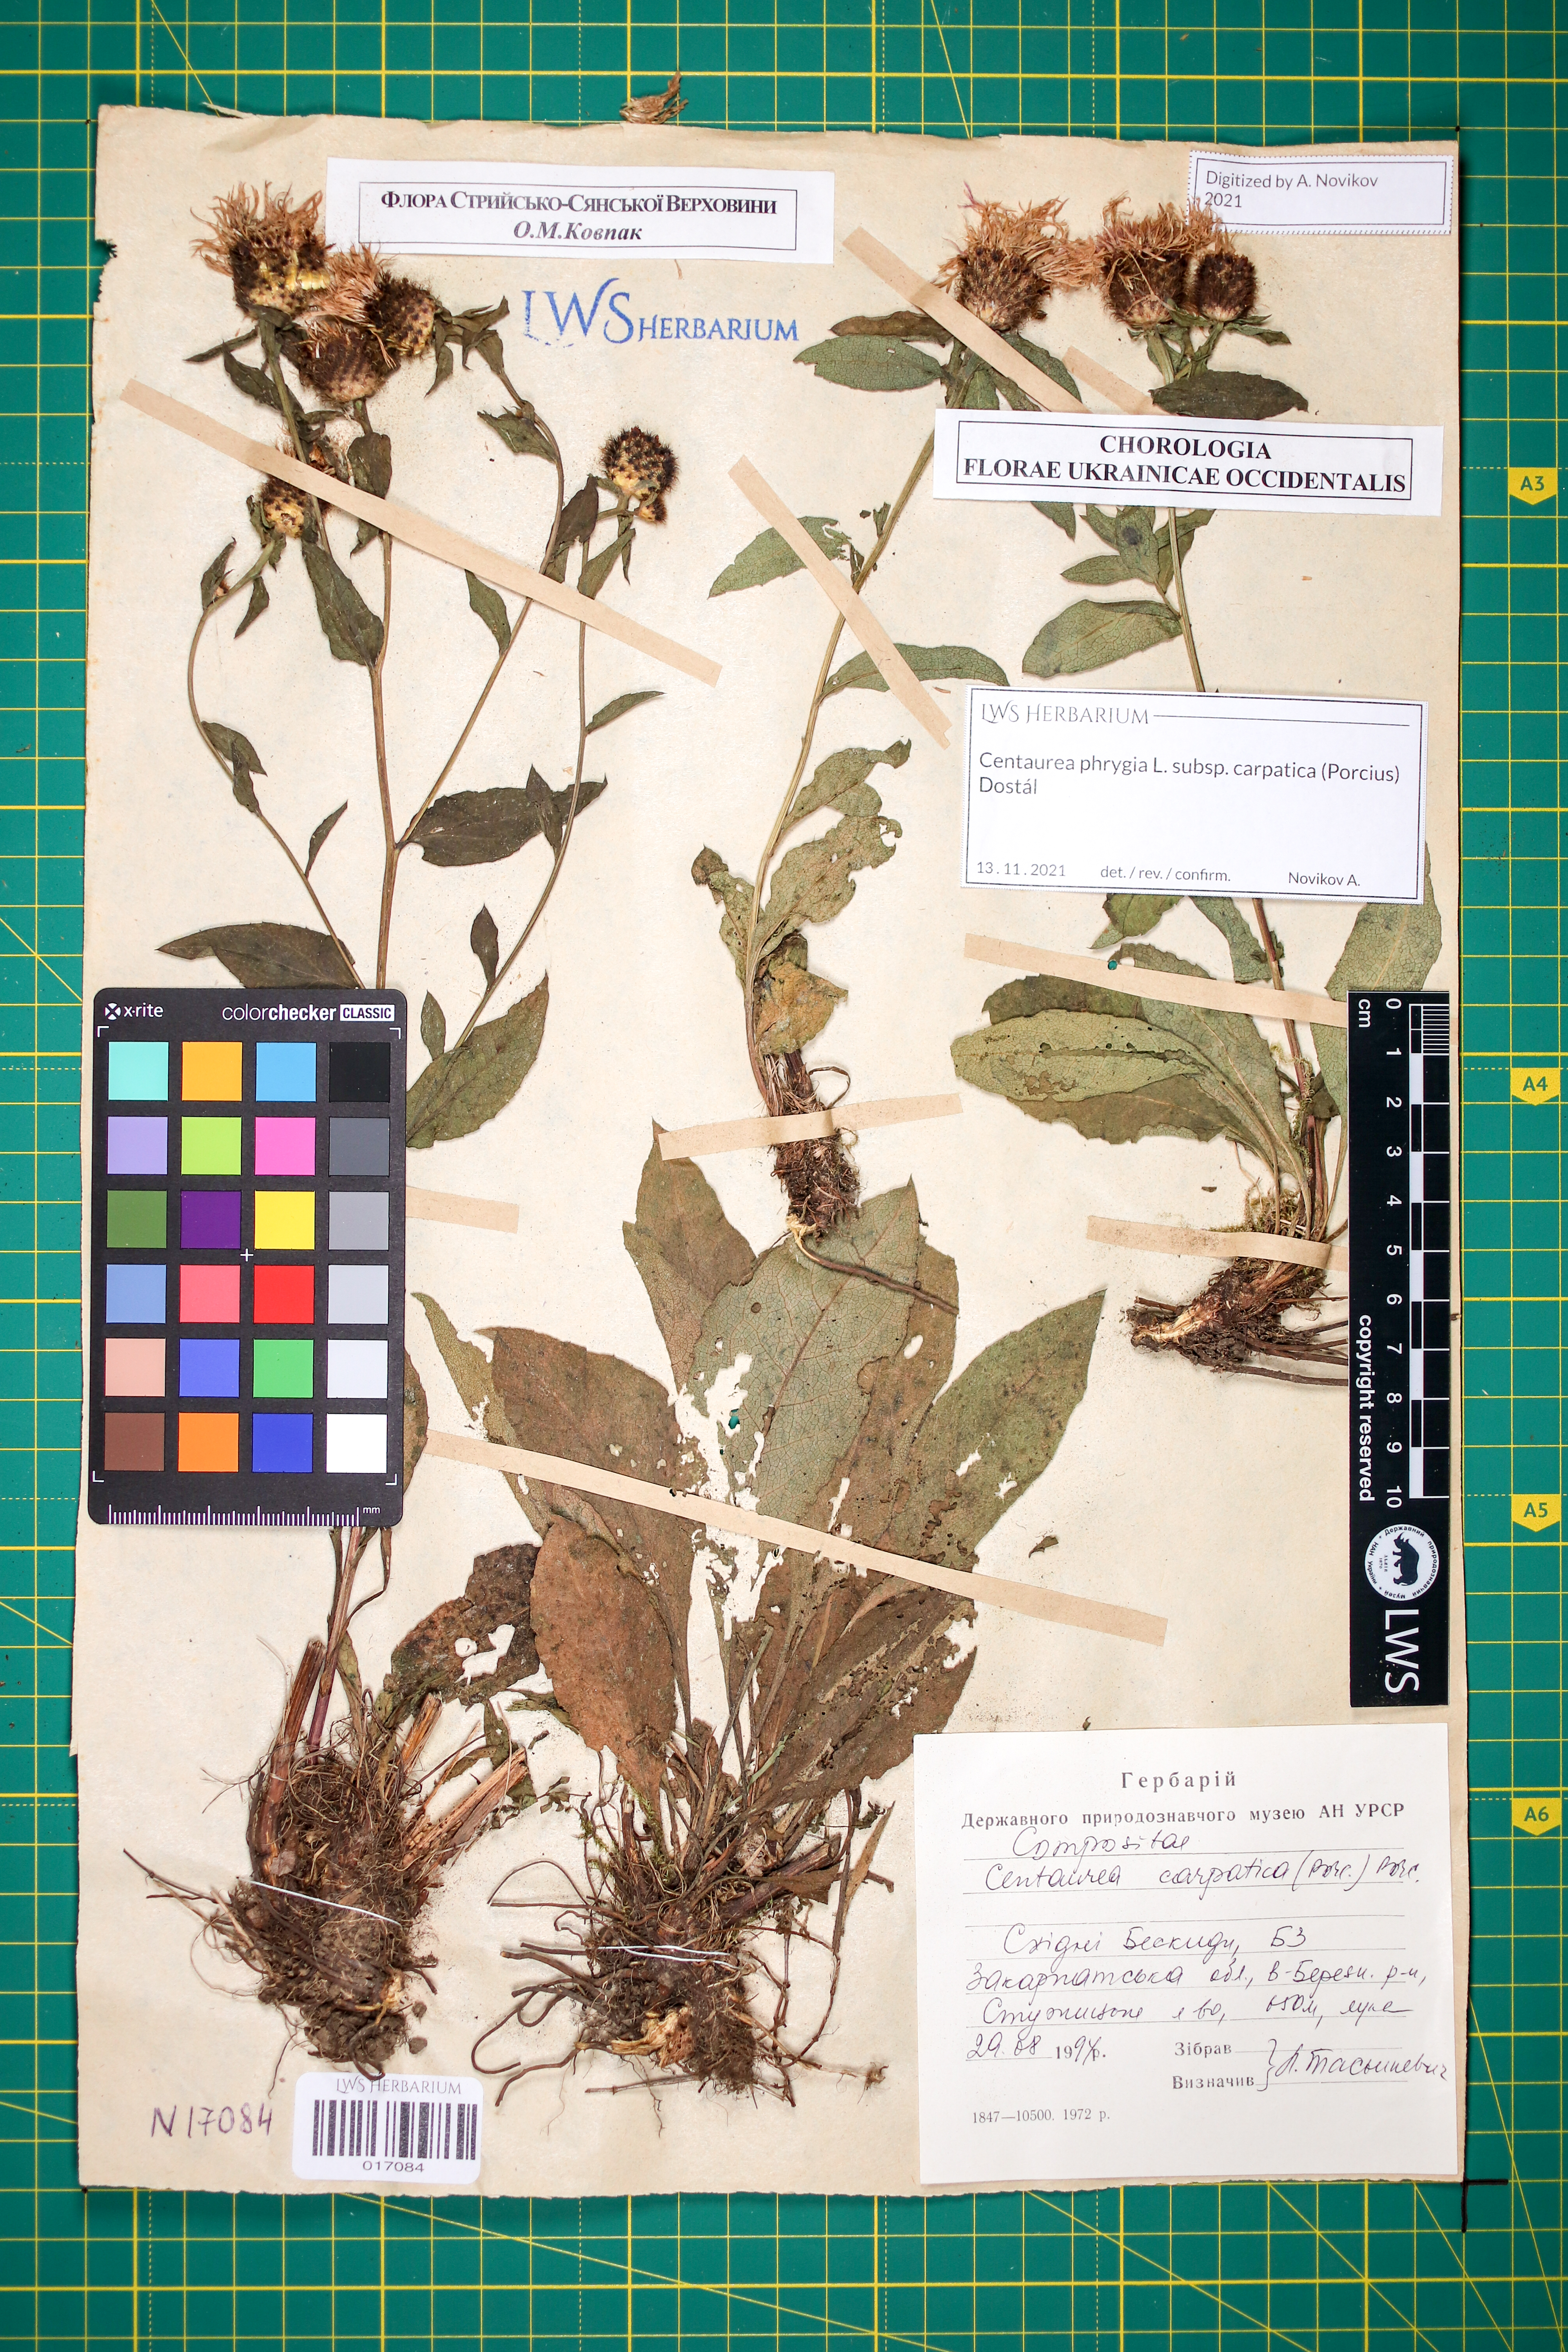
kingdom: Plantae
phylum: Tracheophyta
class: Magnoliopsida
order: Asterales
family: Asteraceae
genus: Centaurea
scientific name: Centaurea phrygia
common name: Wig knapweed
